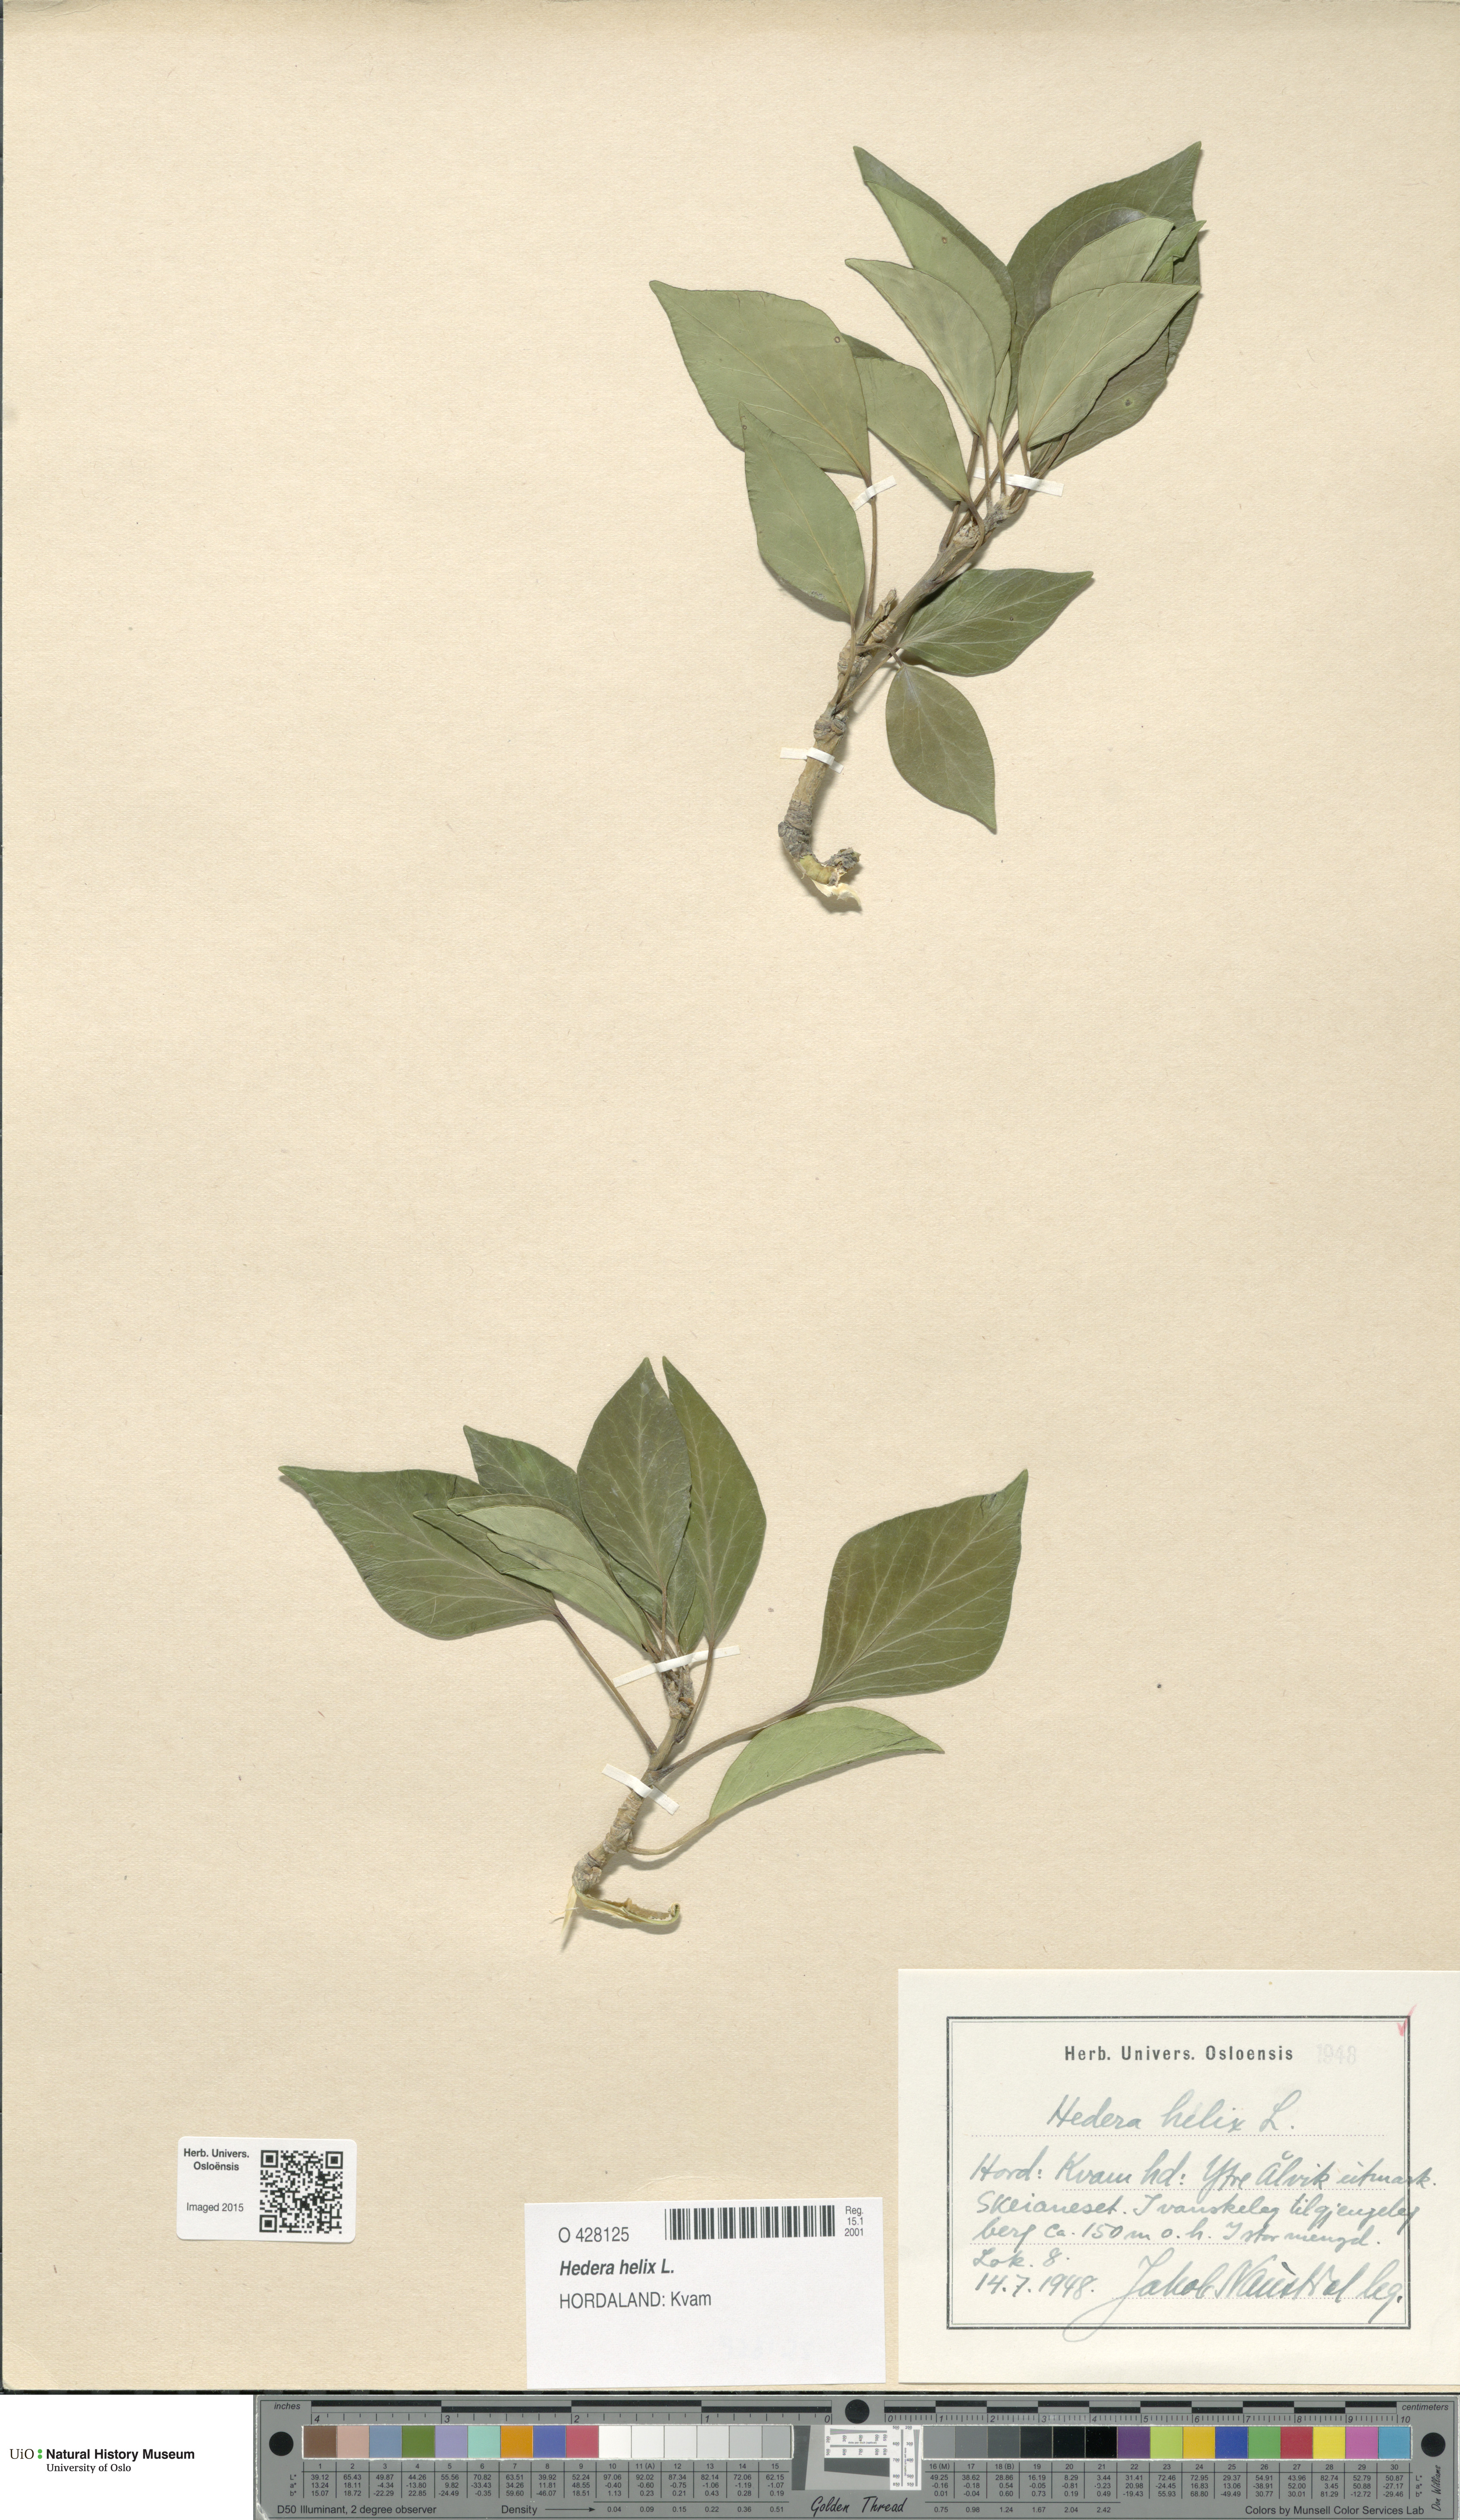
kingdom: Plantae
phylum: Tracheophyta
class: Magnoliopsida
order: Apiales
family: Araliaceae
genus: Hedera
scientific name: Hedera helix
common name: Ivy
